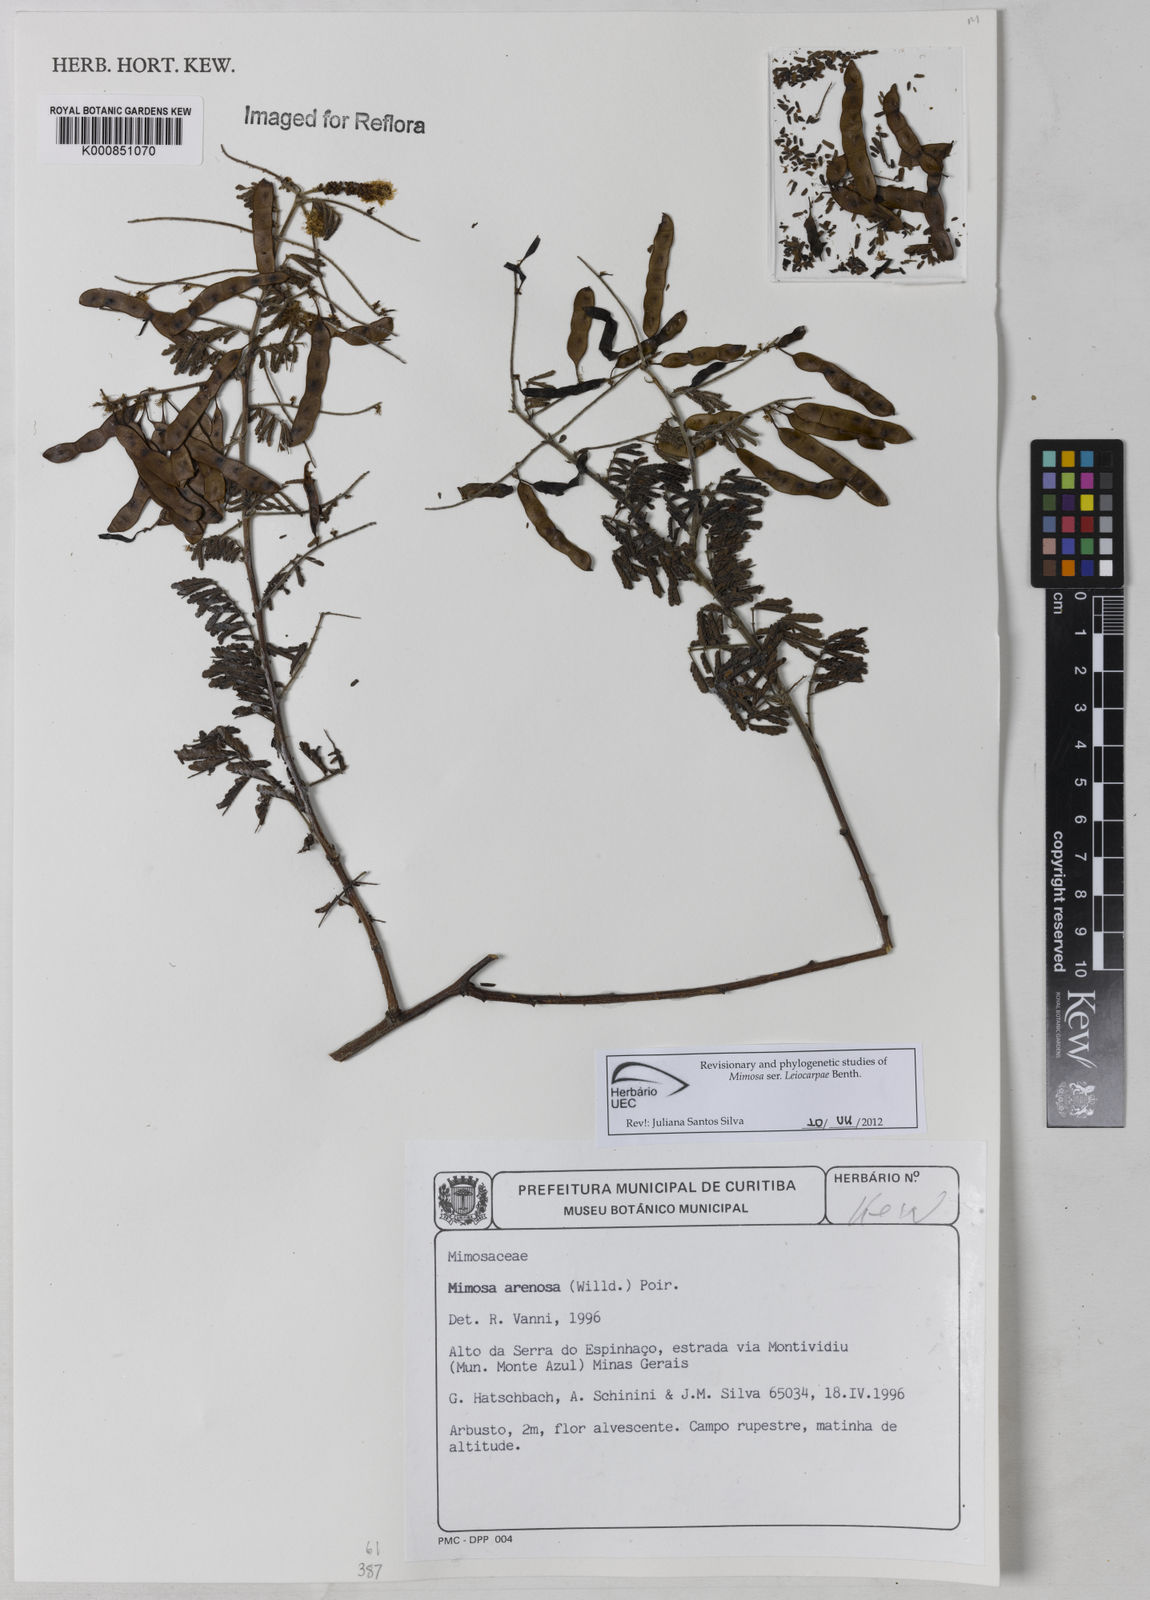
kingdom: Plantae
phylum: Tracheophyta
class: Magnoliopsida
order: Fabales
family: Fabaceae
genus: Mimosa
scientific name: Mimosa arenosa
